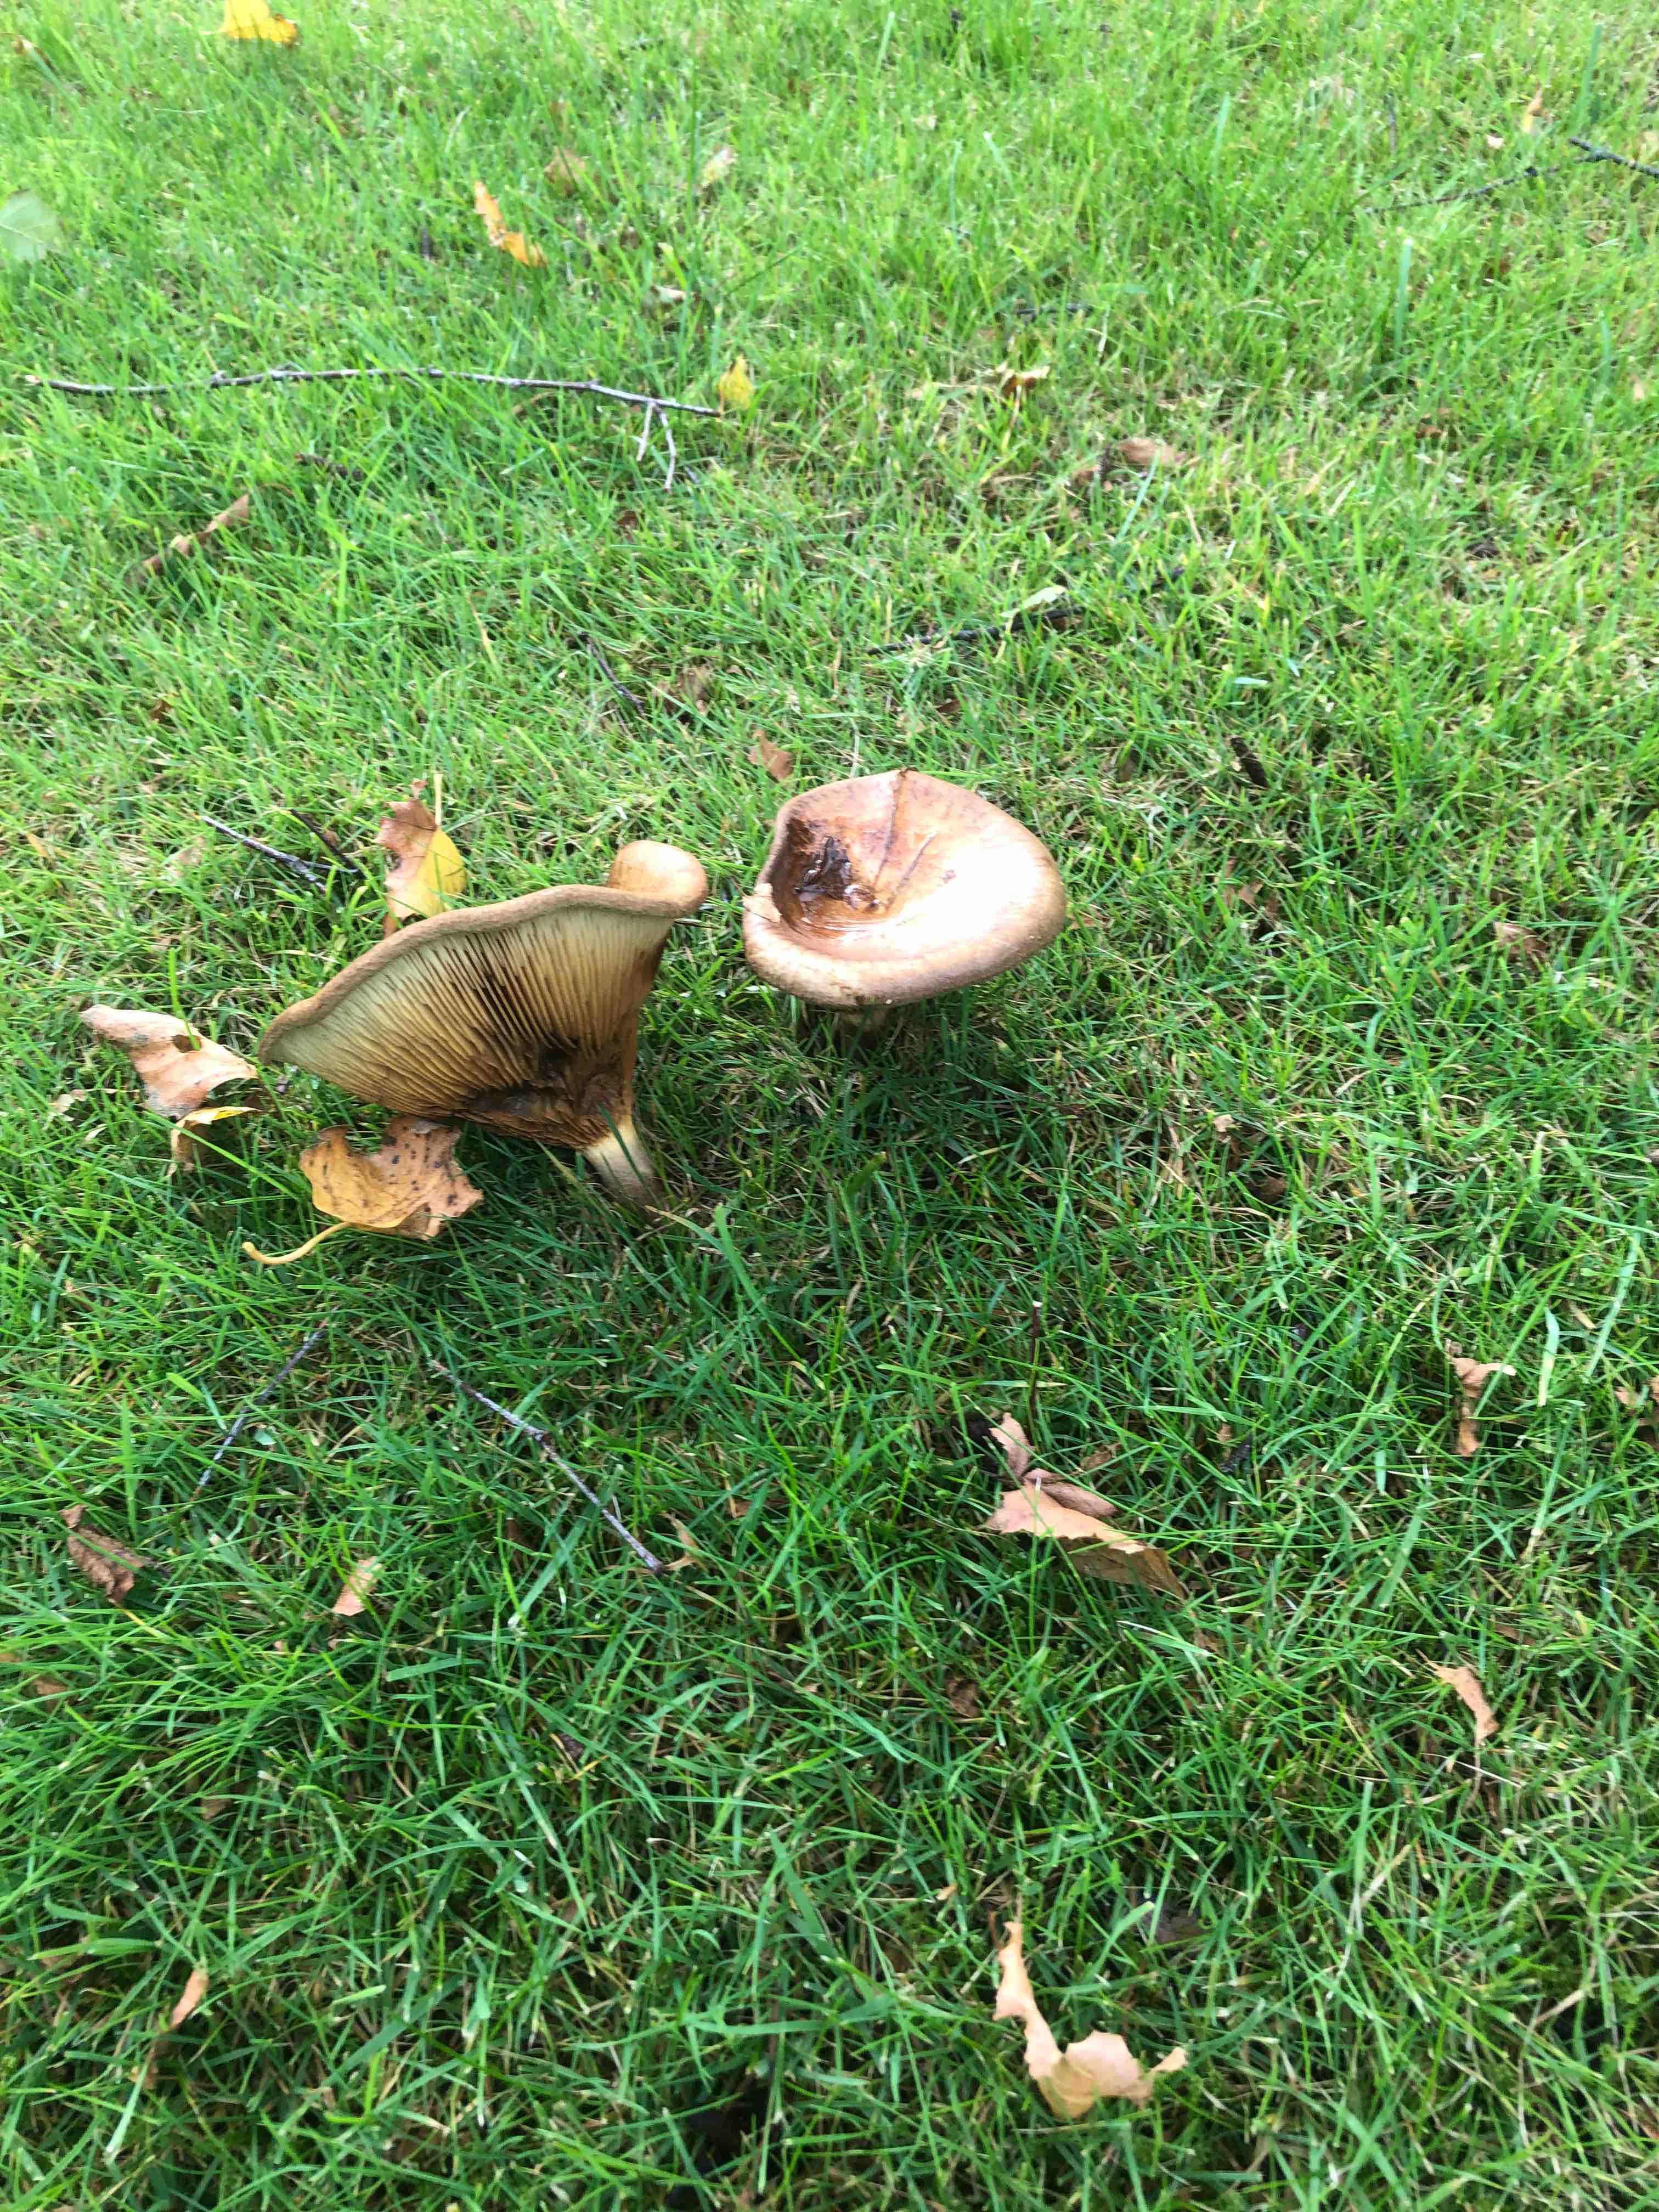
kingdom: Fungi
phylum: Basidiomycota
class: Agaricomycetes
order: Boletales
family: Paxillaceae
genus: Paxillus
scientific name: Paxillus
